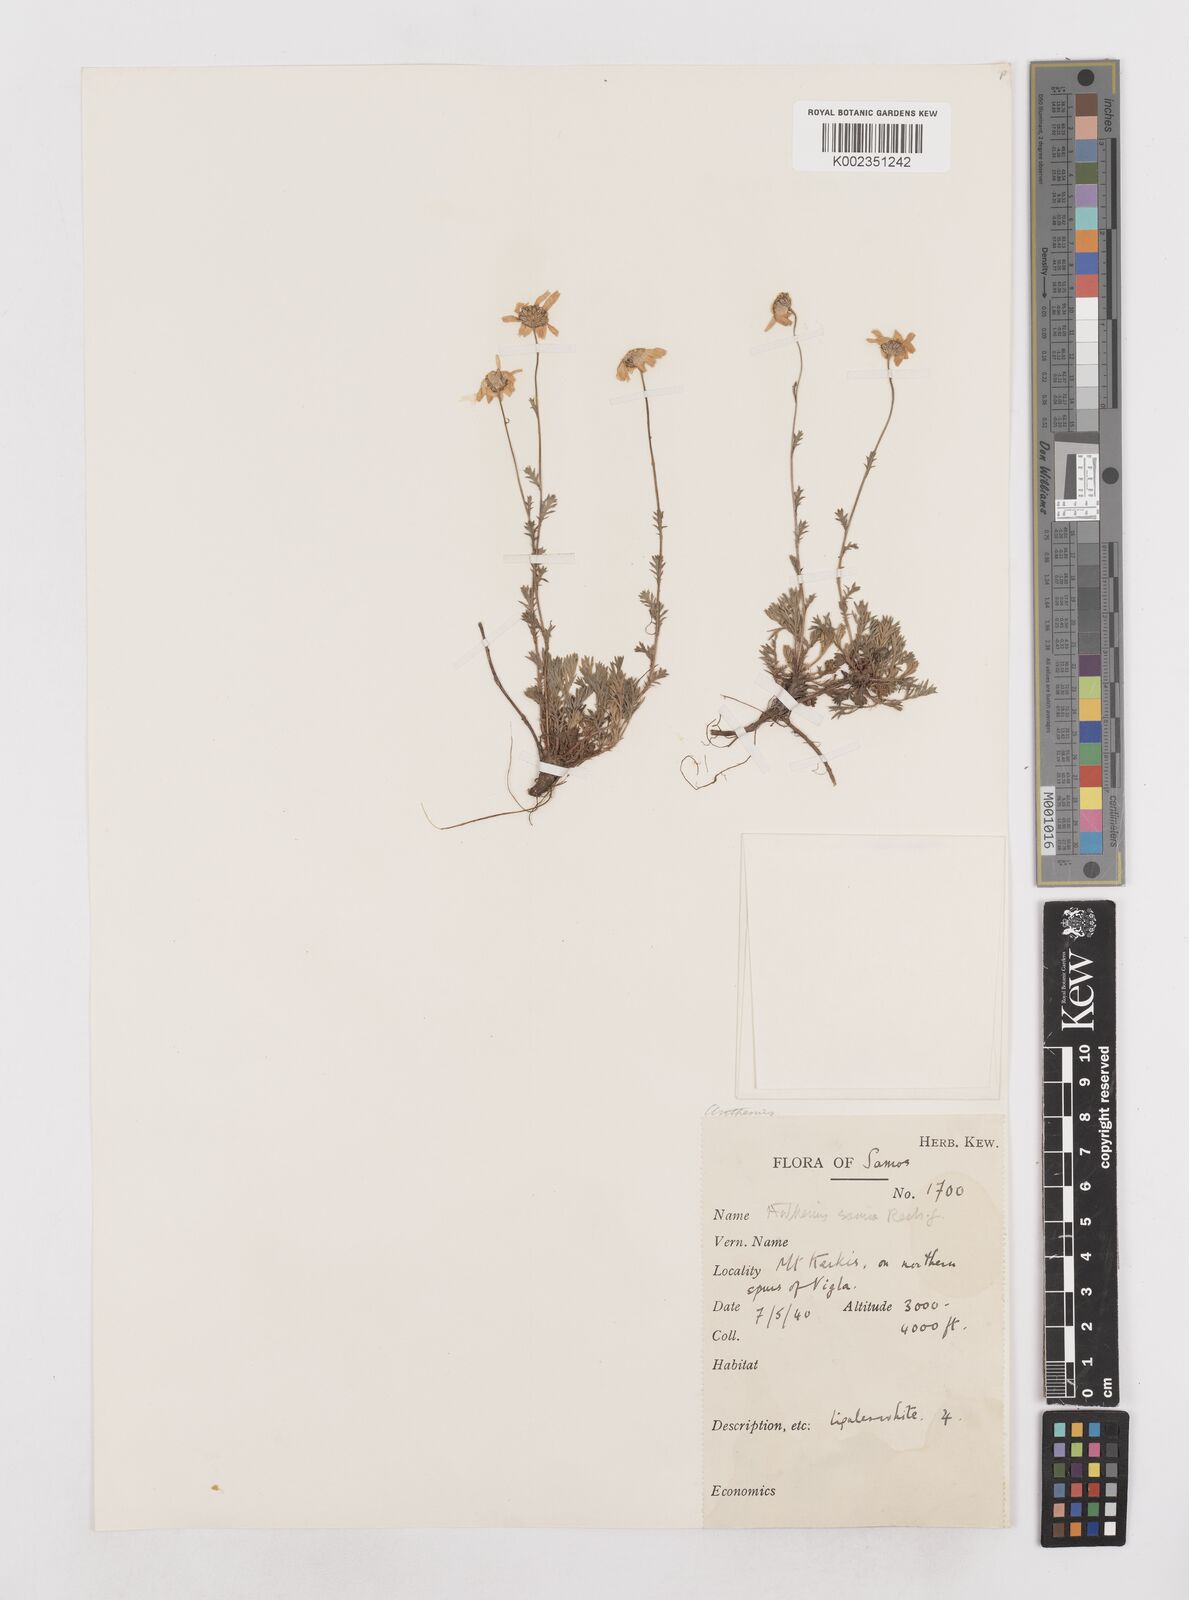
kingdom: Plantae
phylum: Tracheophyta
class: Magnoliopsida
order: Asterales
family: Asteraceae
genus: Anthemis
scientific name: Anthemis cretica
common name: Mountain dog-daisy
